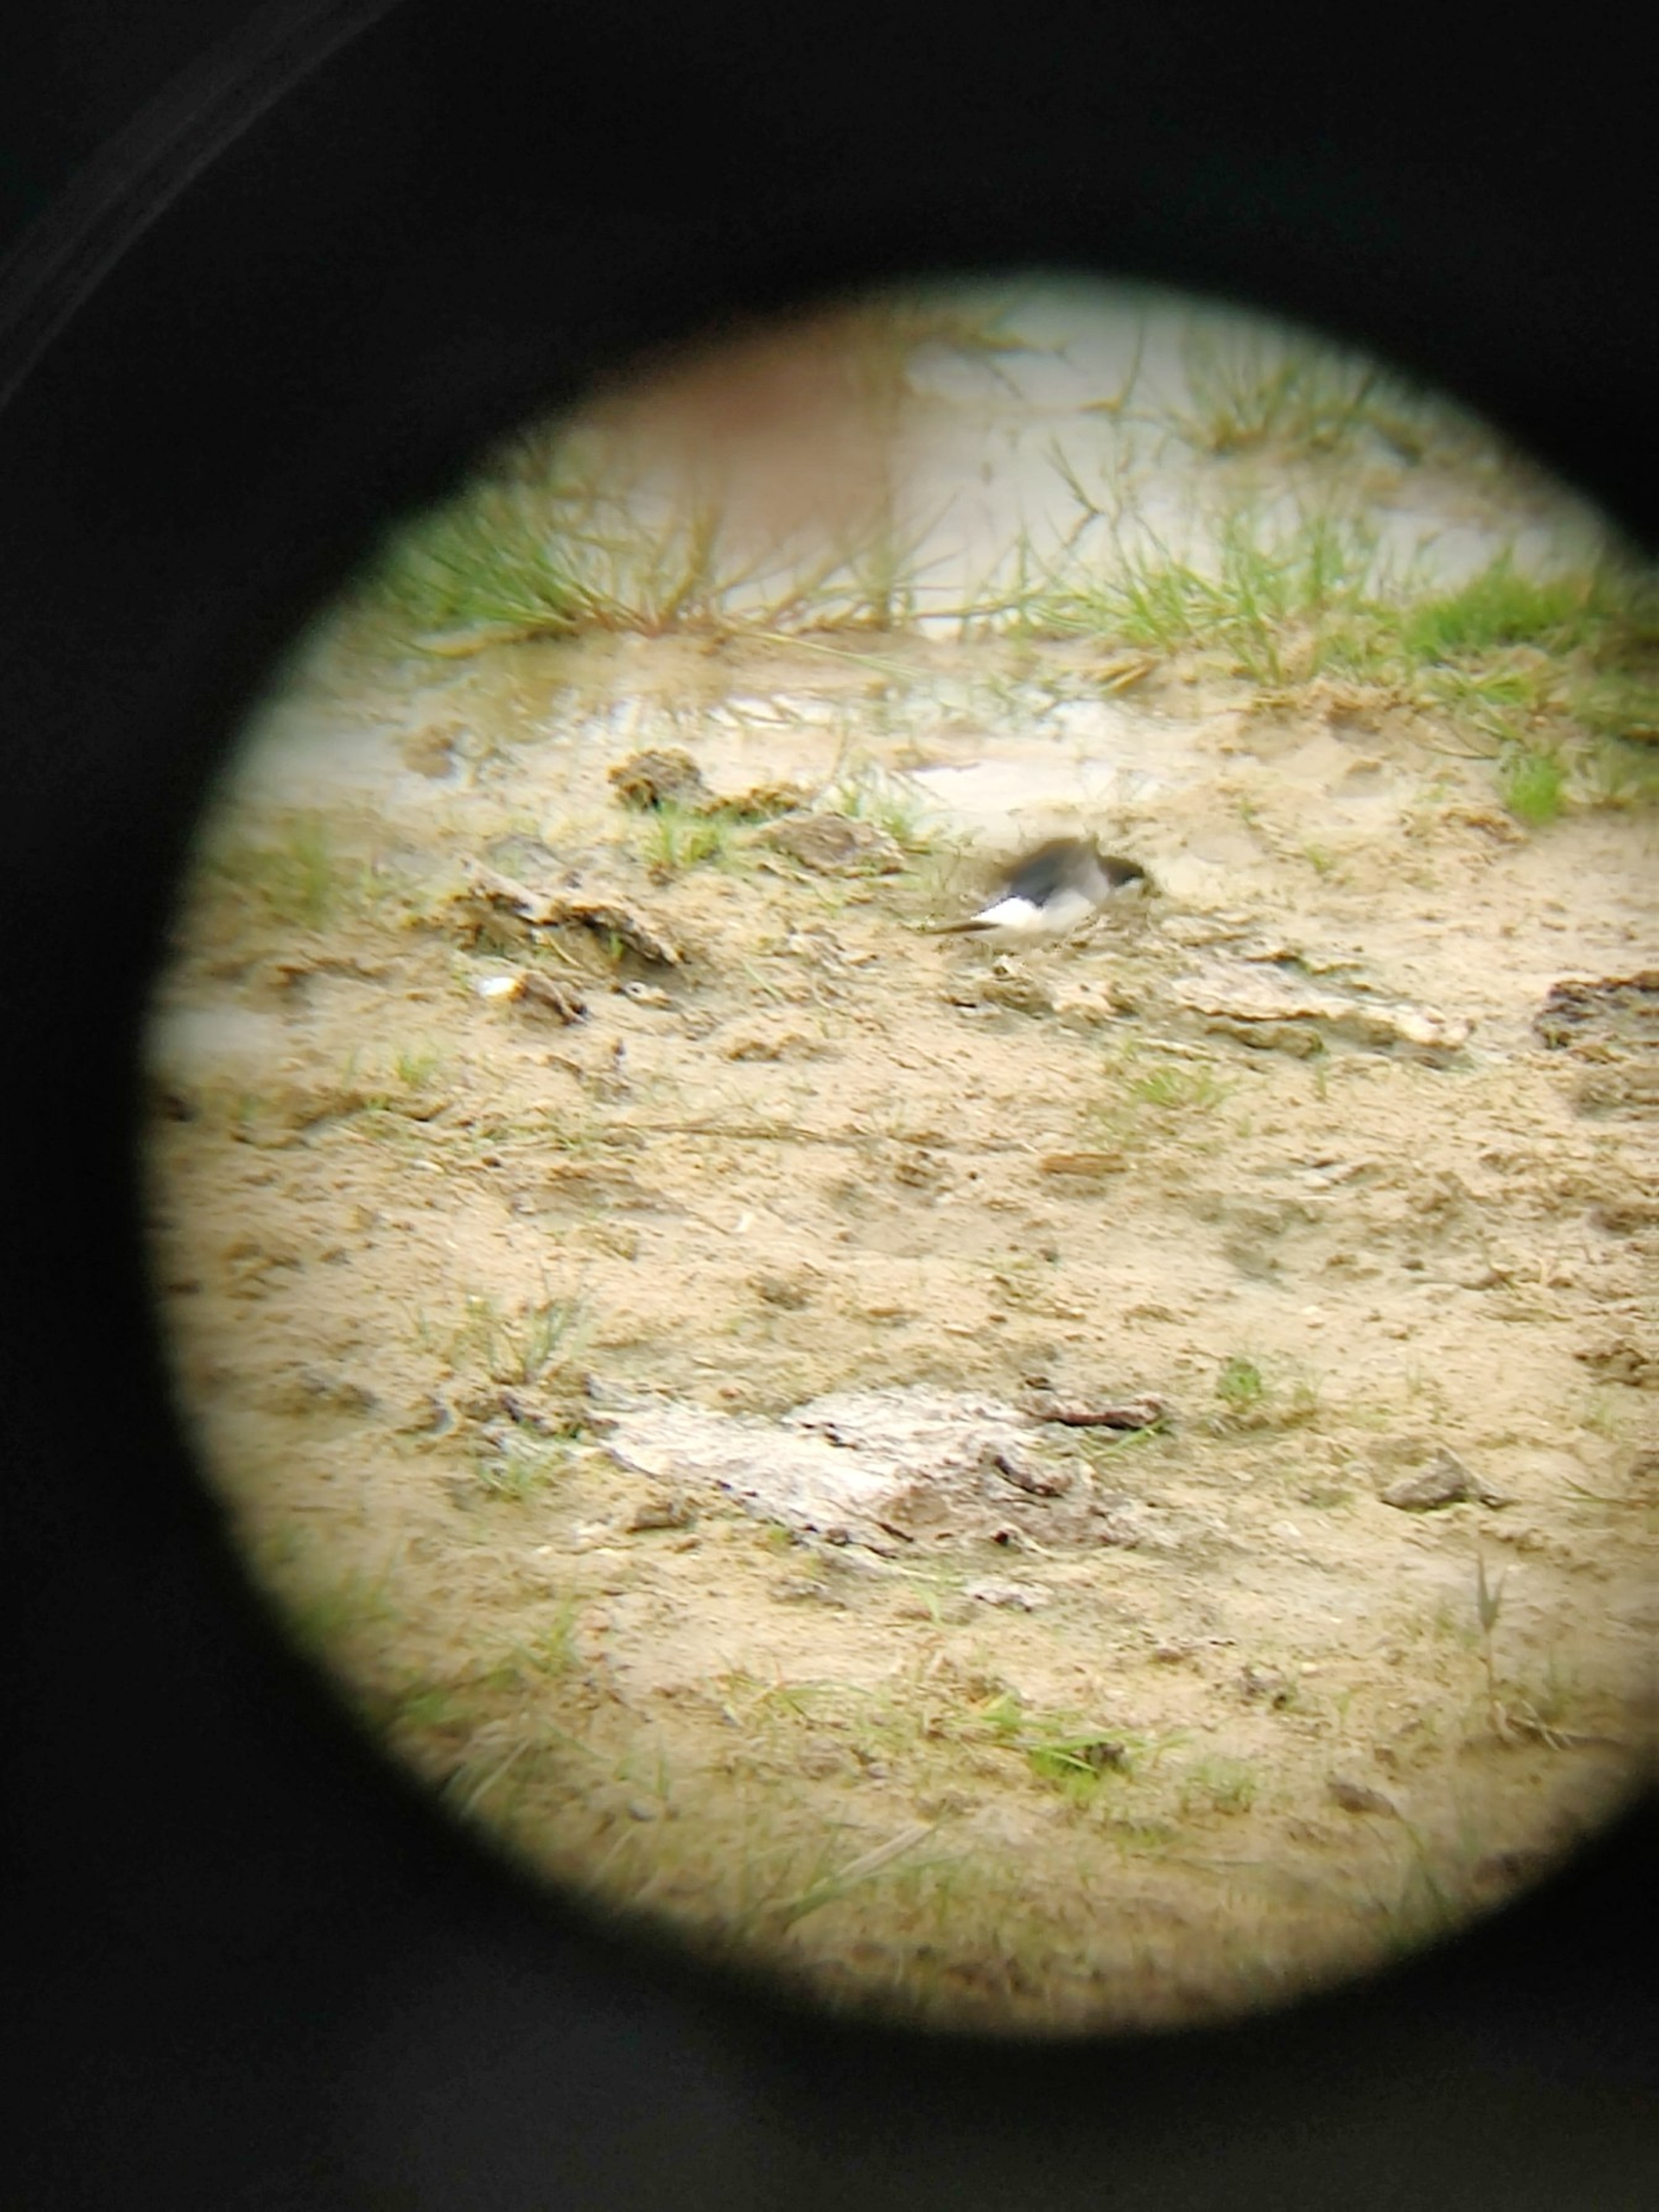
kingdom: Animalia
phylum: Chordata
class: Aves
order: Charadriiformes
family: Charadriidae
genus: Charadrius
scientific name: Charadrius dubius
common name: Lille præstekrave
